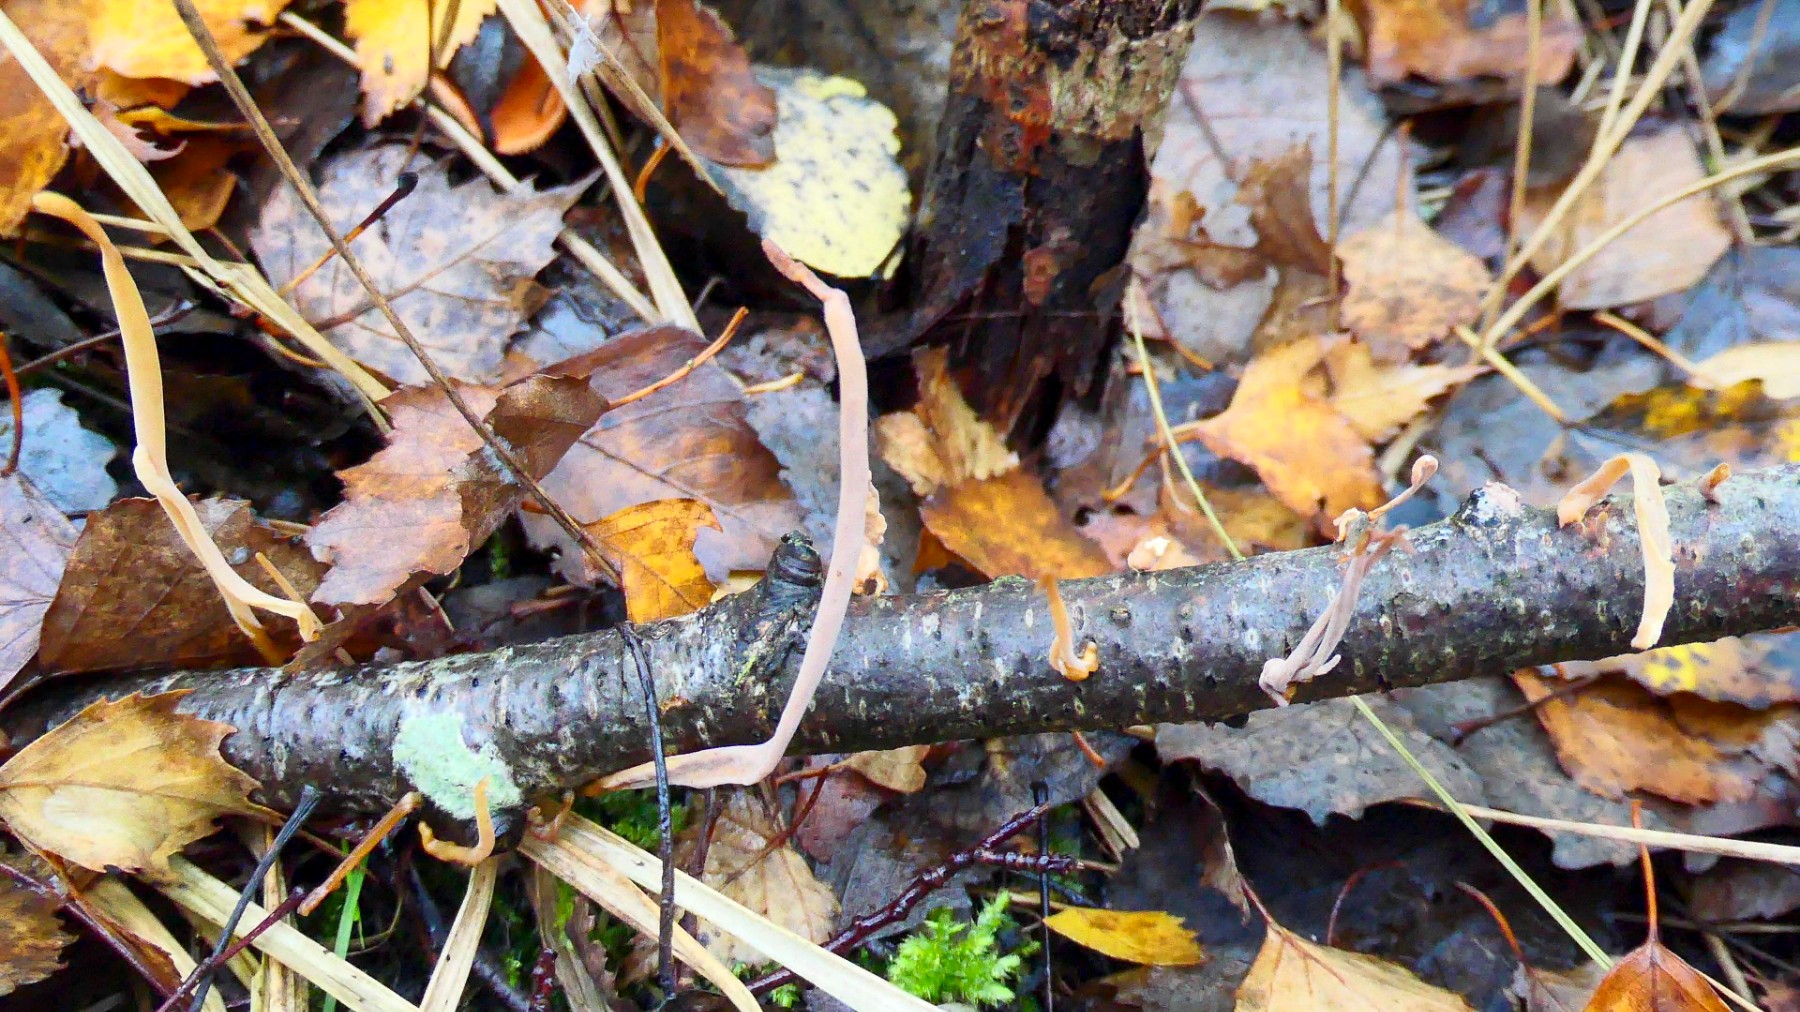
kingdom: Fungi
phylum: Basidiomycota
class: Agaricomycetes
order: Agaricales
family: Typhulaceae
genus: Typhula
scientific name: Typhula contorta
